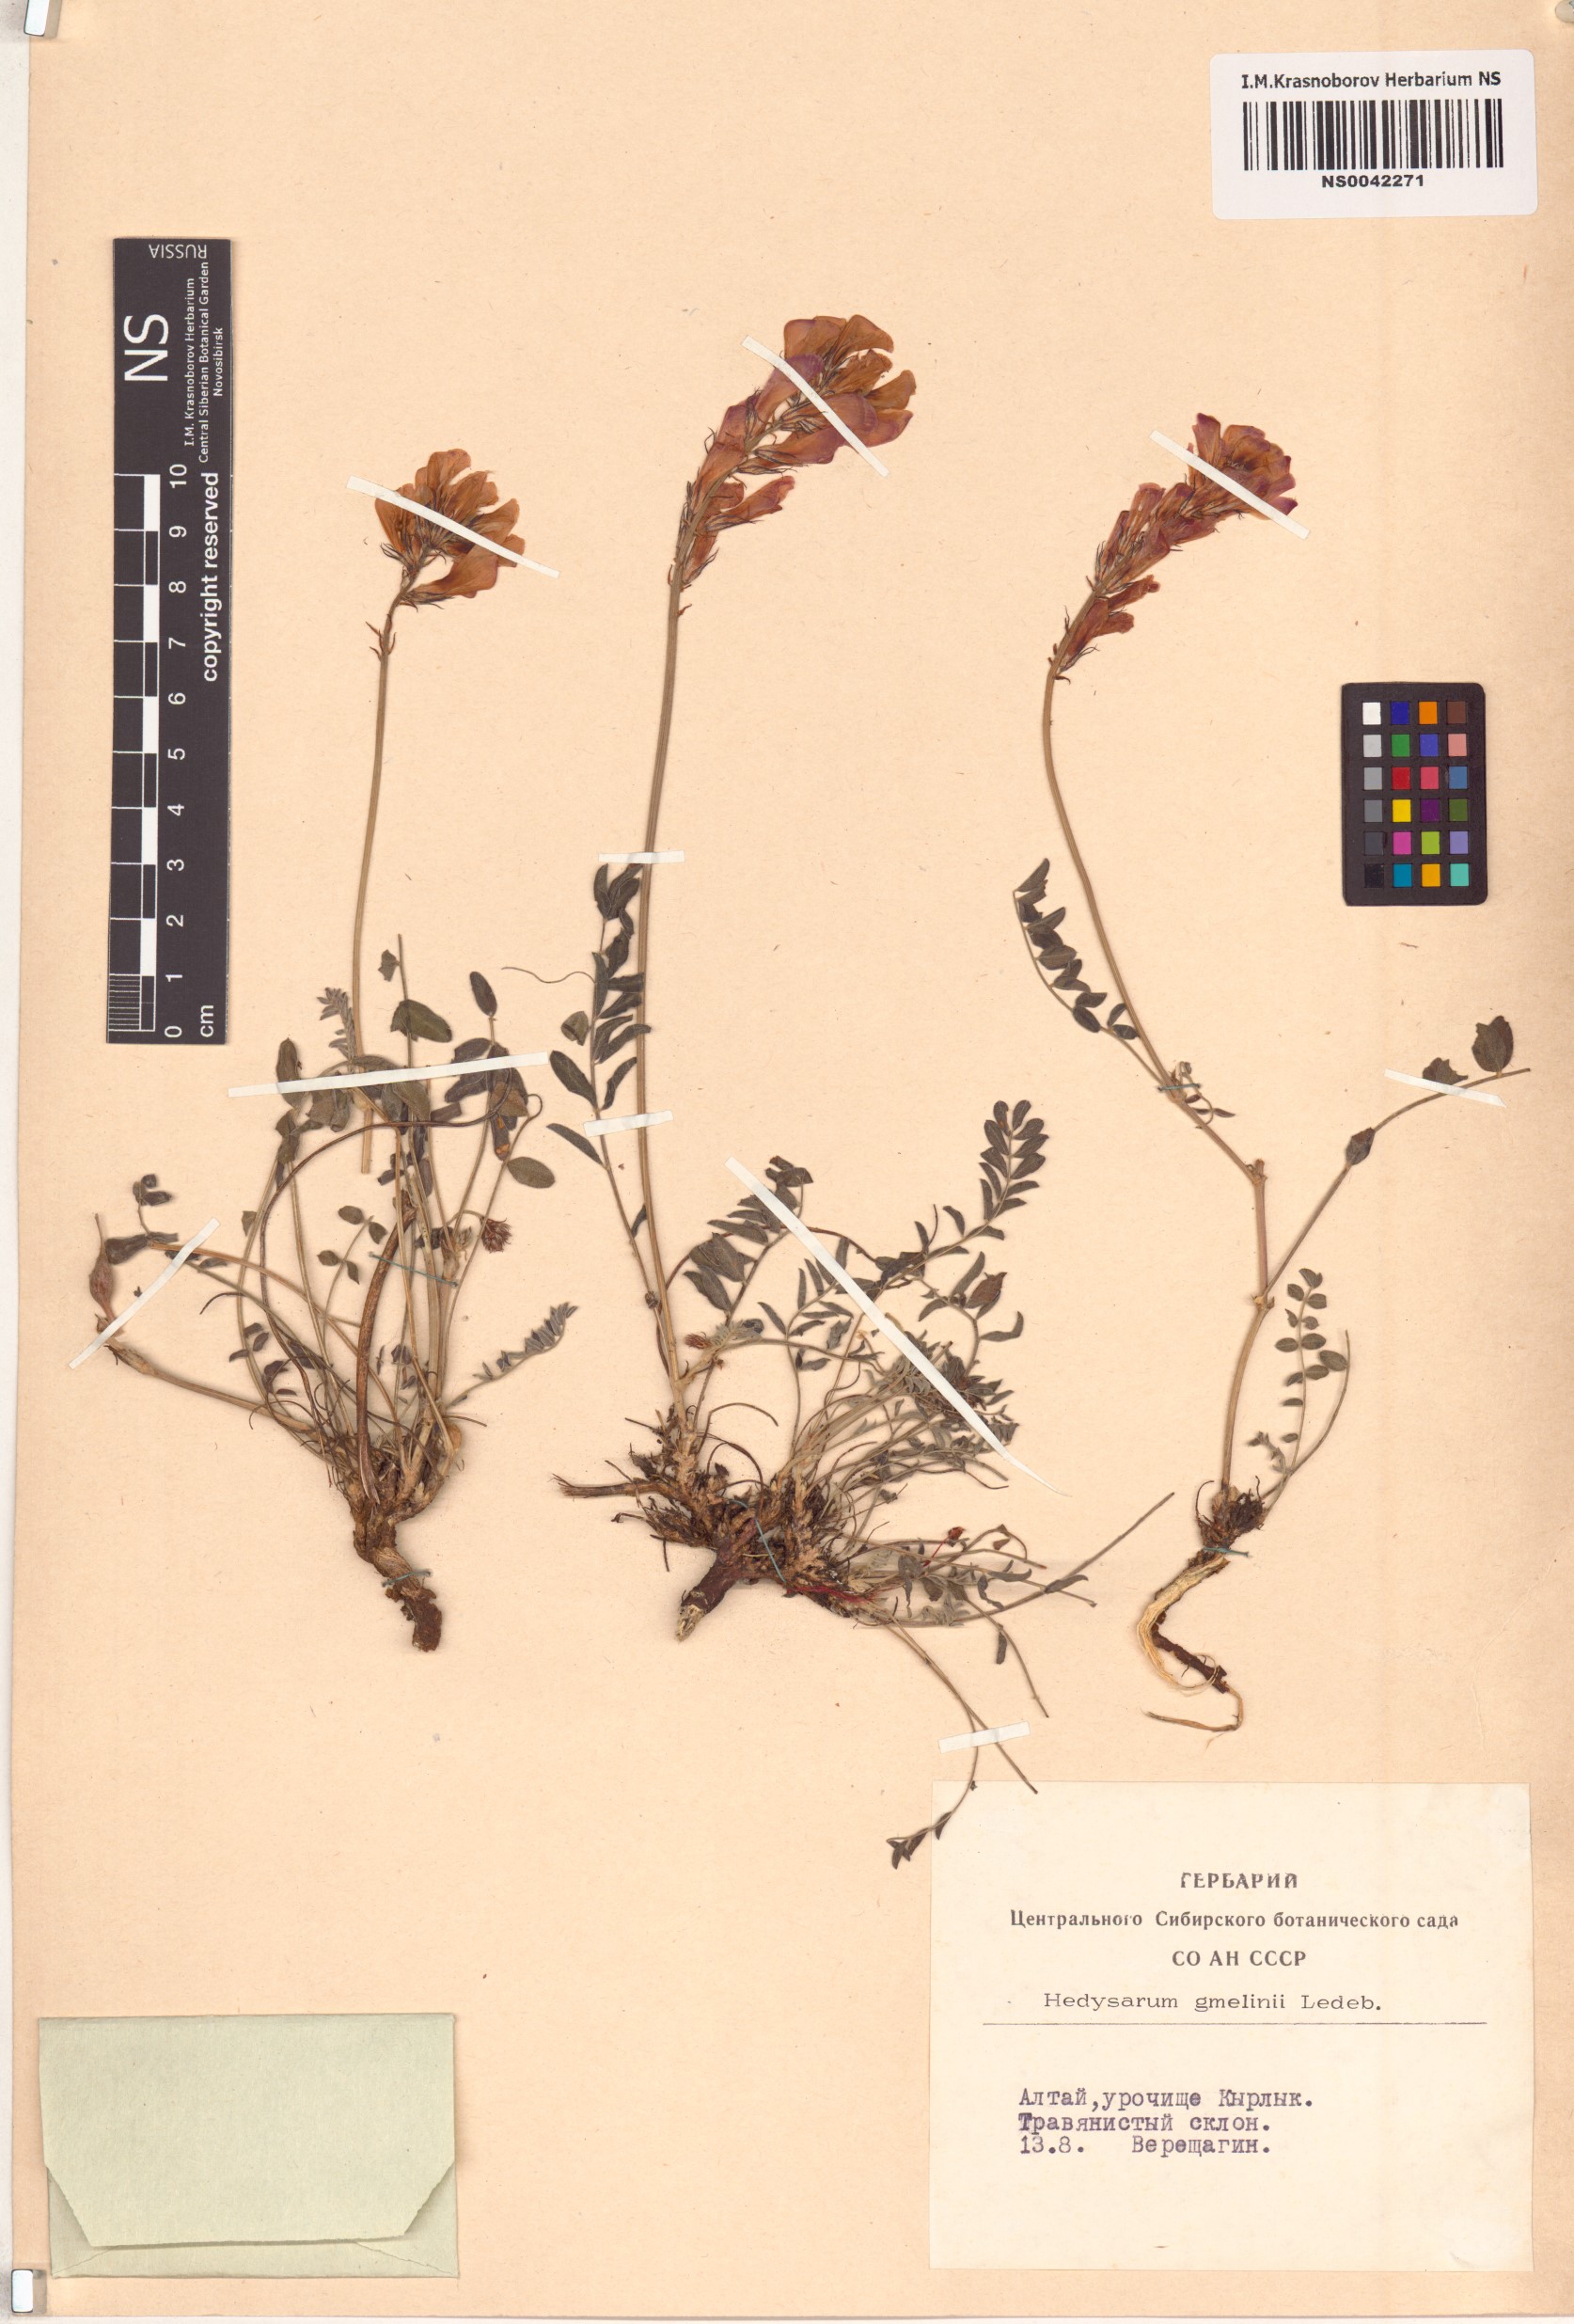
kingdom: Plantae
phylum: Tracheophyta
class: Magnoliopsida
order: Fabales
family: Fabaceae
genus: Hedysarum
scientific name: Hedysarum gmelinii
